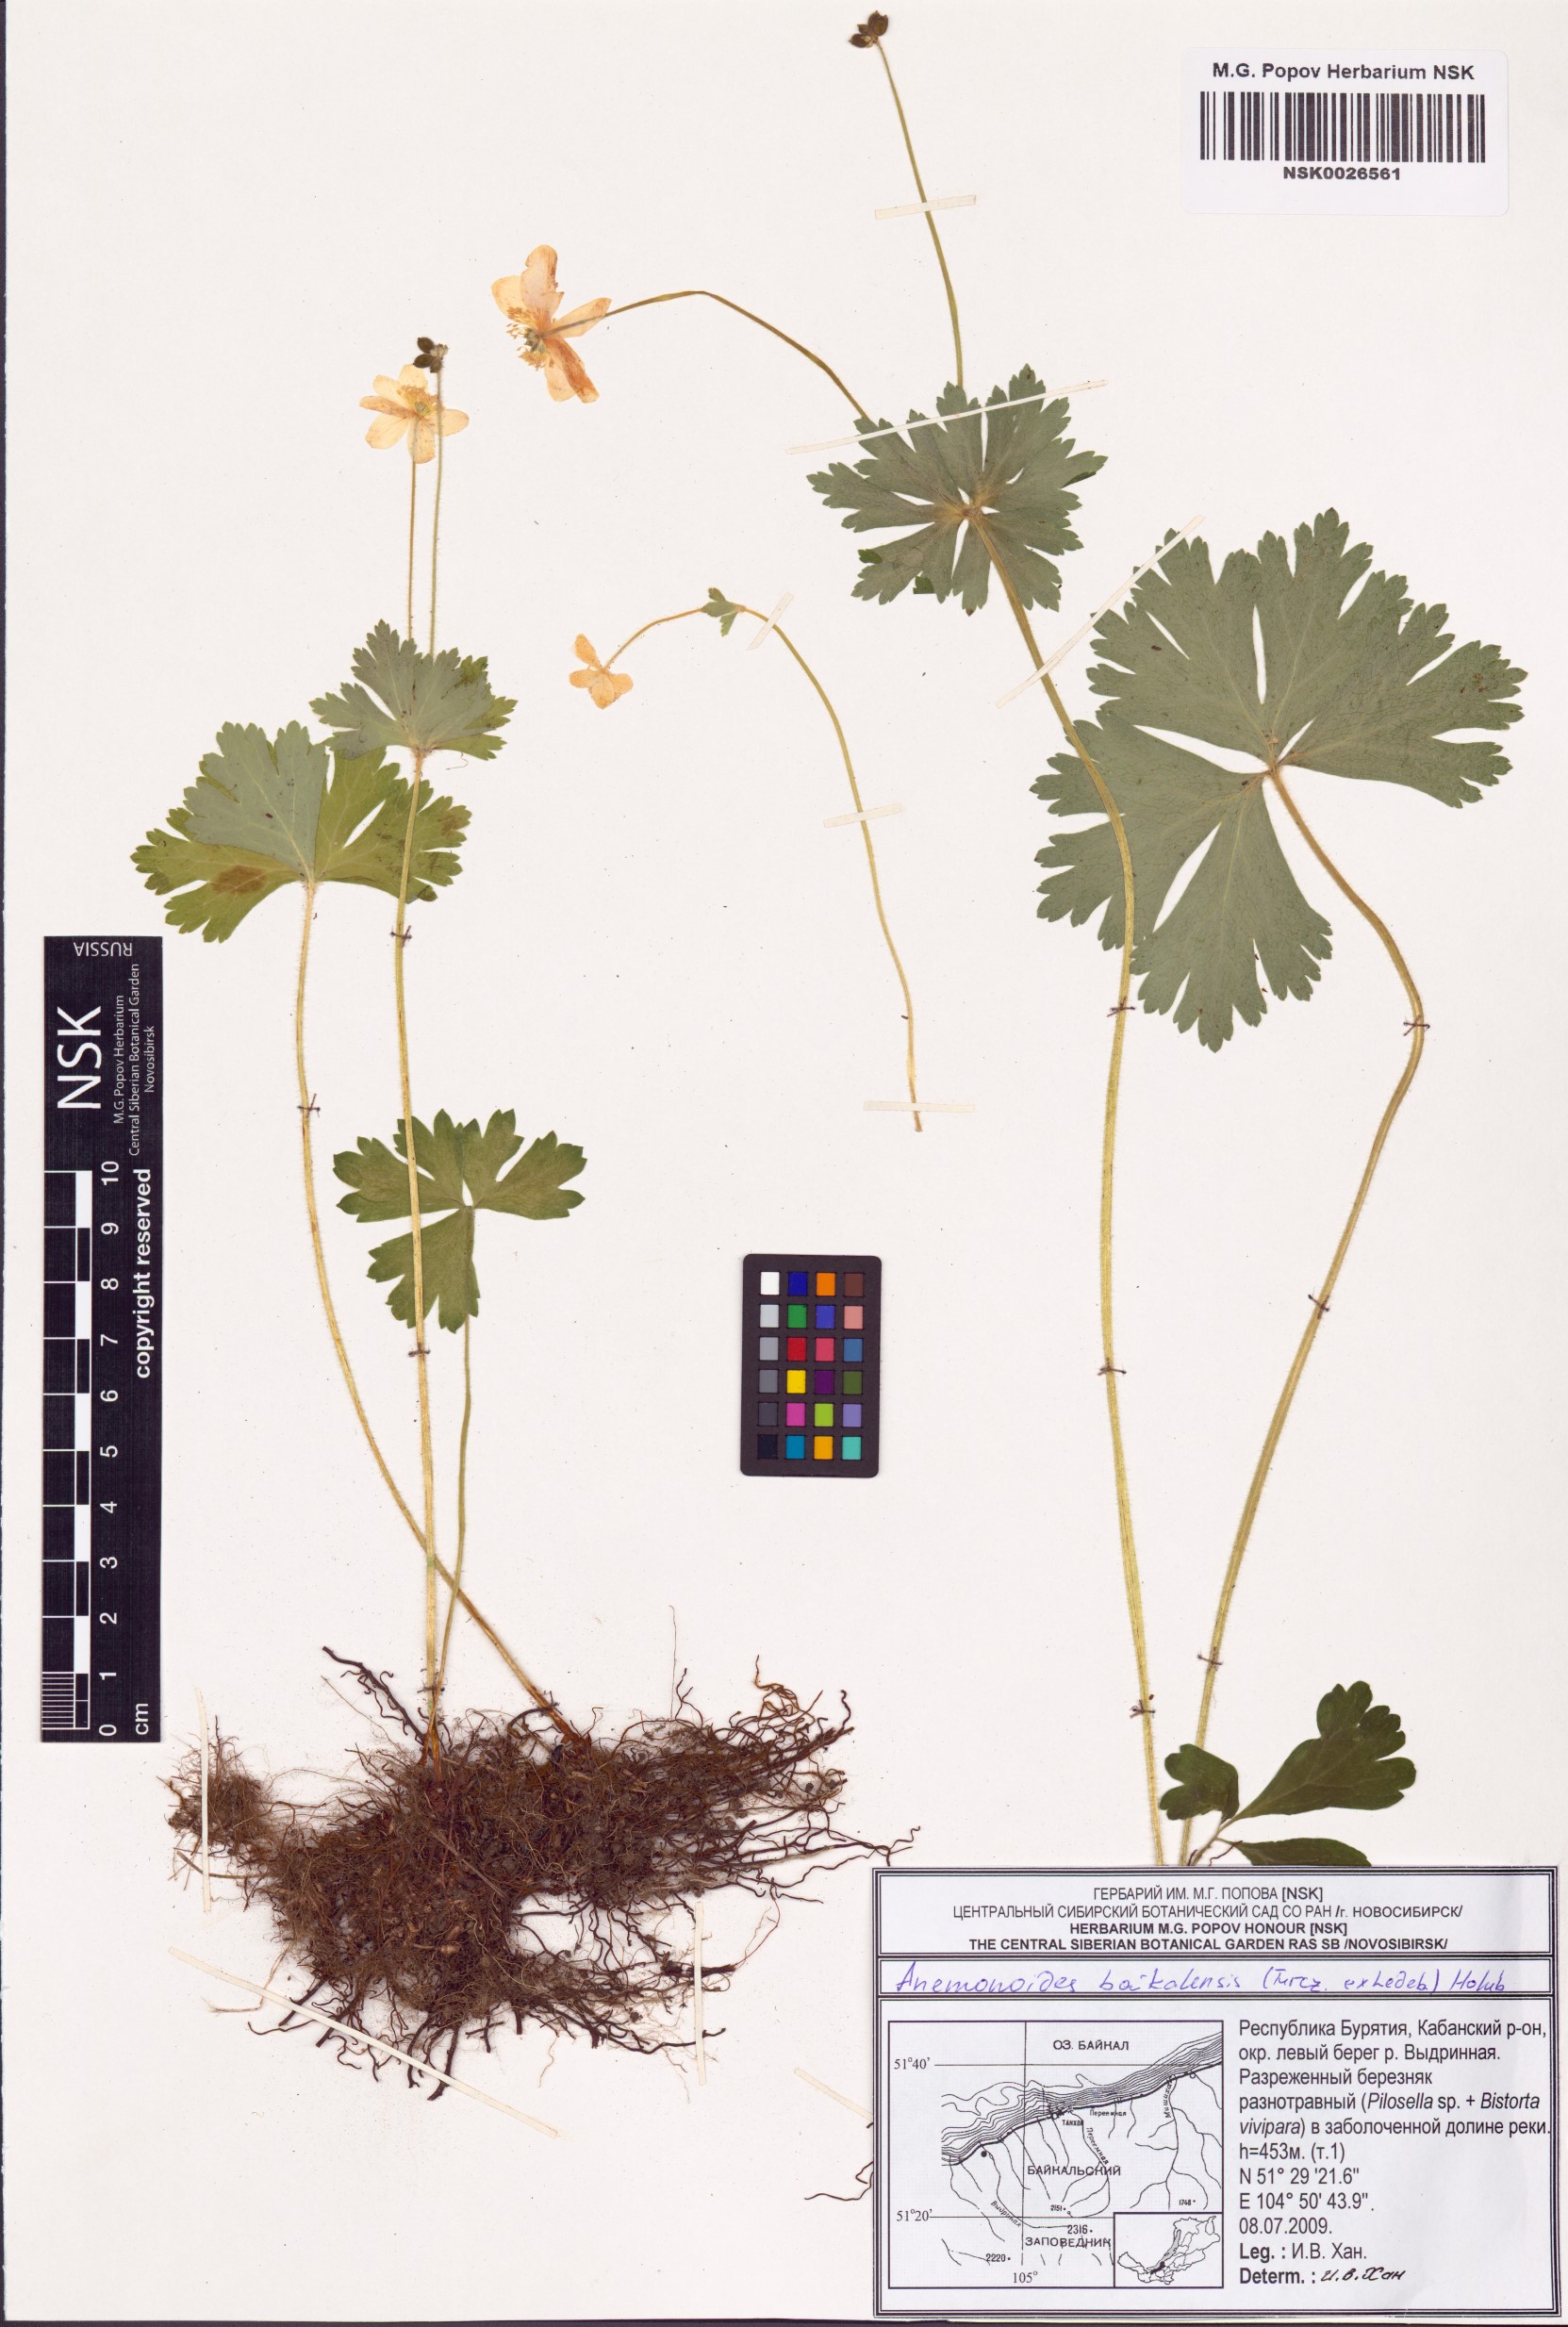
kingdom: Plantae
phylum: Tracheophyta
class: Magnoliopsida
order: Ranunculales
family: Ranunculaceae
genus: Anemonastrum
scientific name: Anemonastrum baicalense
